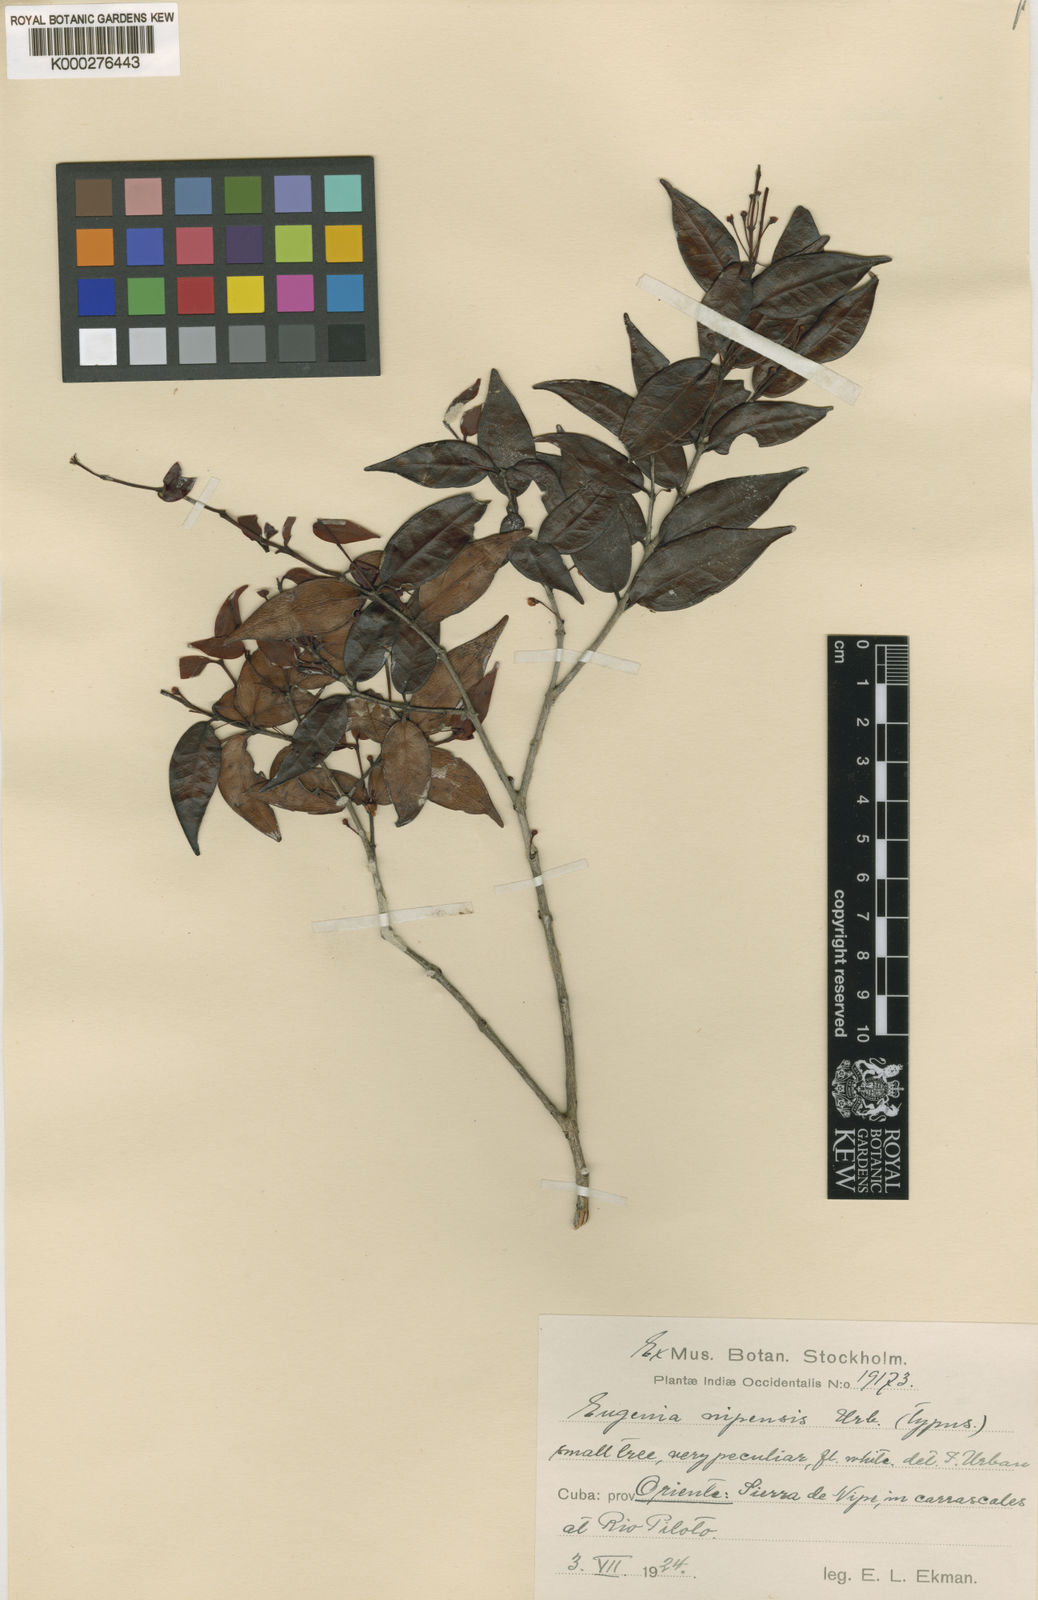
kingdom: Plantae
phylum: Tracheophyta
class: Magnoliopsida
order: Myrtales
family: Myrtaceae
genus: Eugenia
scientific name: Eugenia nipensis
